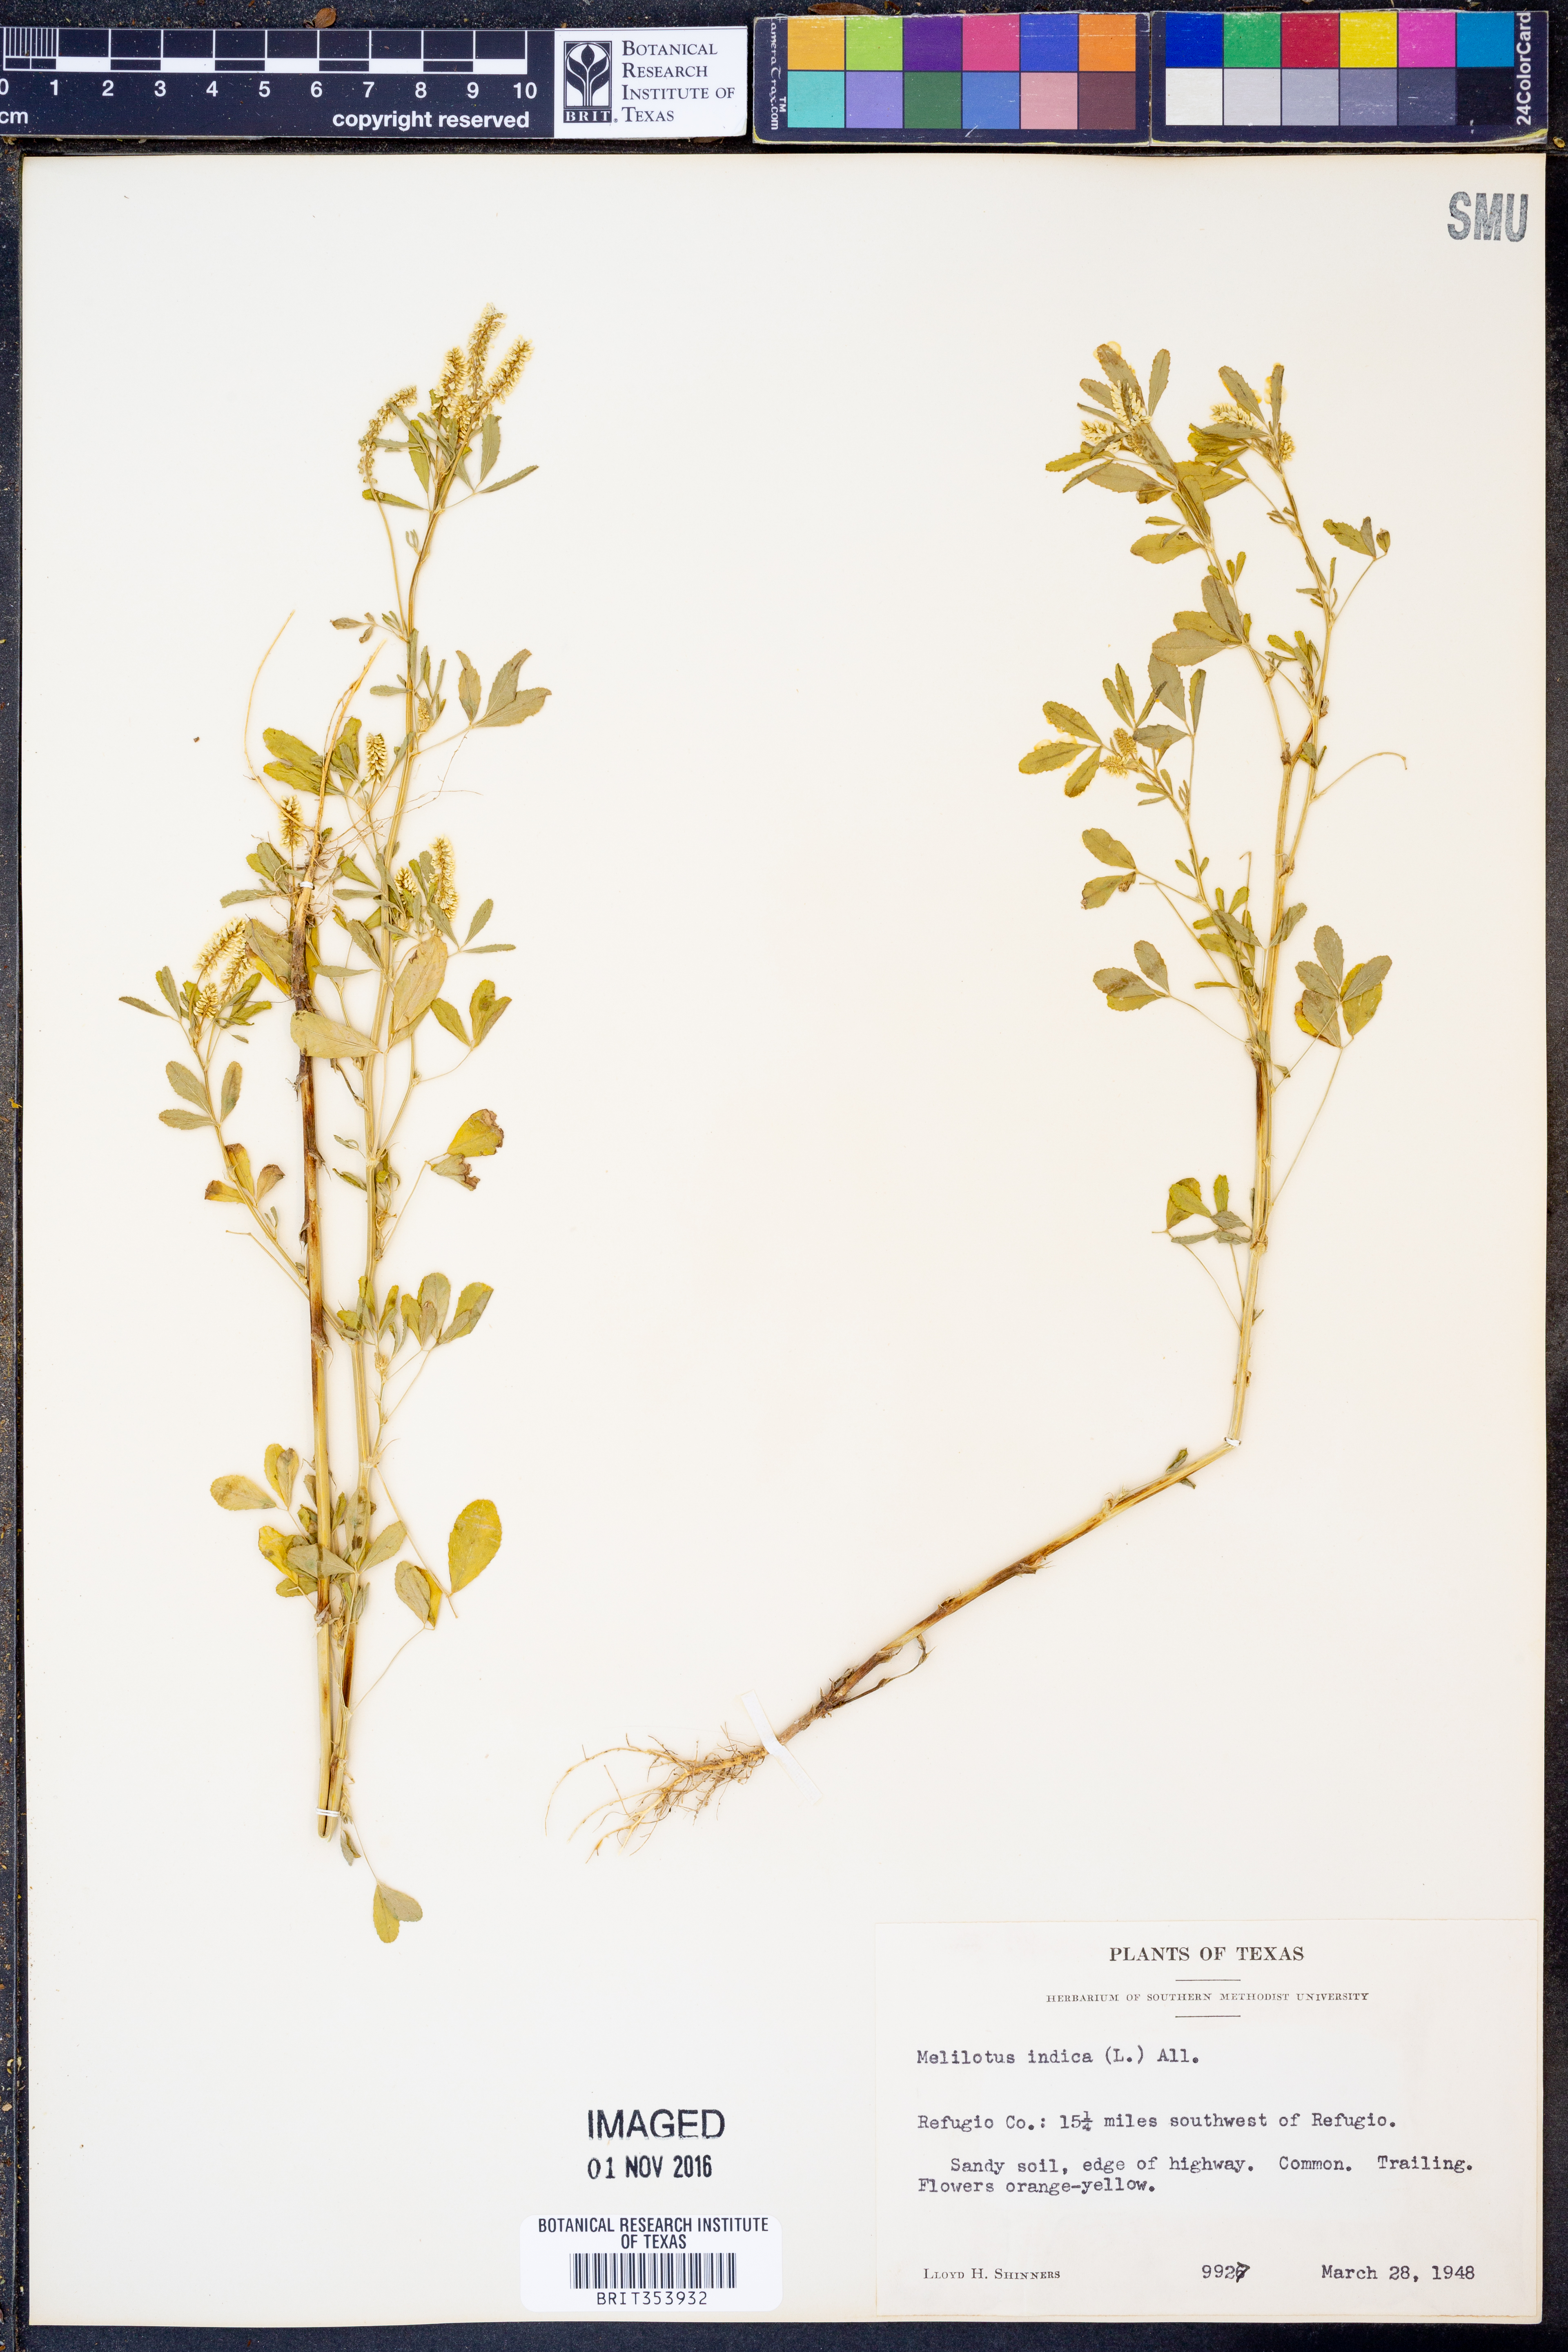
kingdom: Plantae
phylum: Tracheophyta
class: Magnoliopsida
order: Fabales
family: Fabaceae
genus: Melilotus
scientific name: Melilotus indicus
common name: Small melilot
